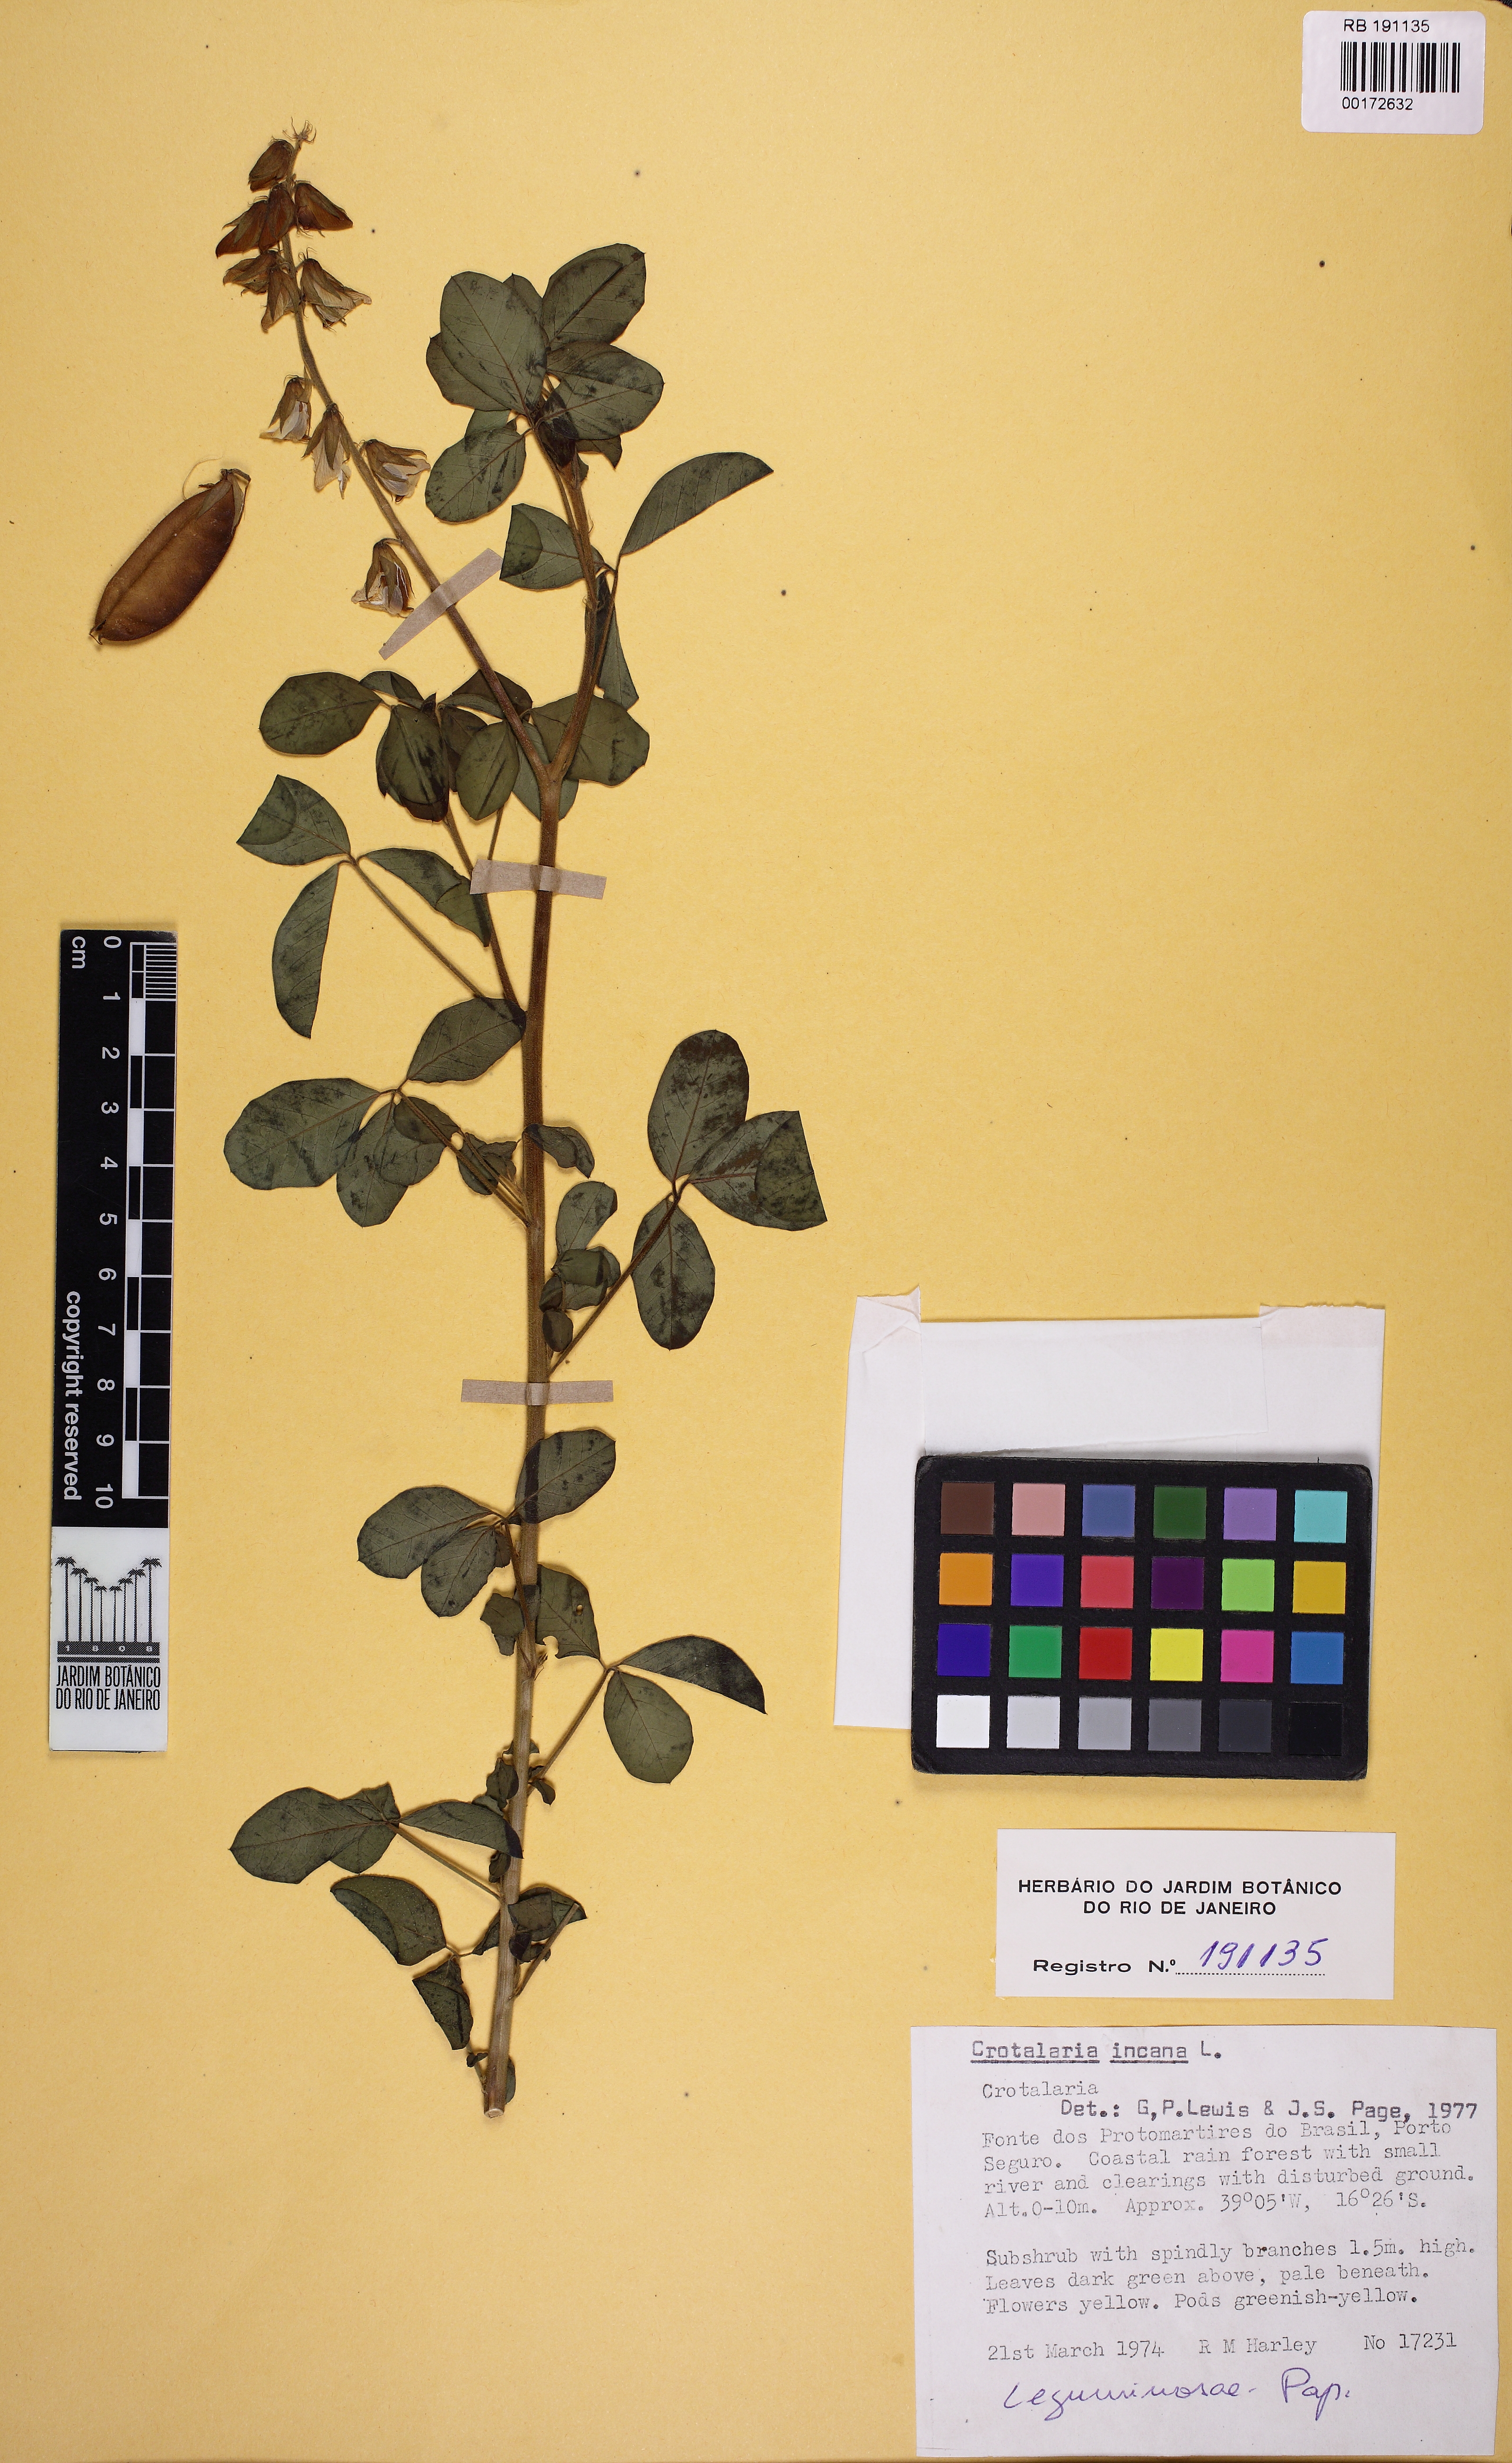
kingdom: Plantae
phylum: Tracheophyta
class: Magnoliopsida
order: Fabales
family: Fabaceae
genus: Crotalaria
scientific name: Crotalaria incana
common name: Shakeshake
